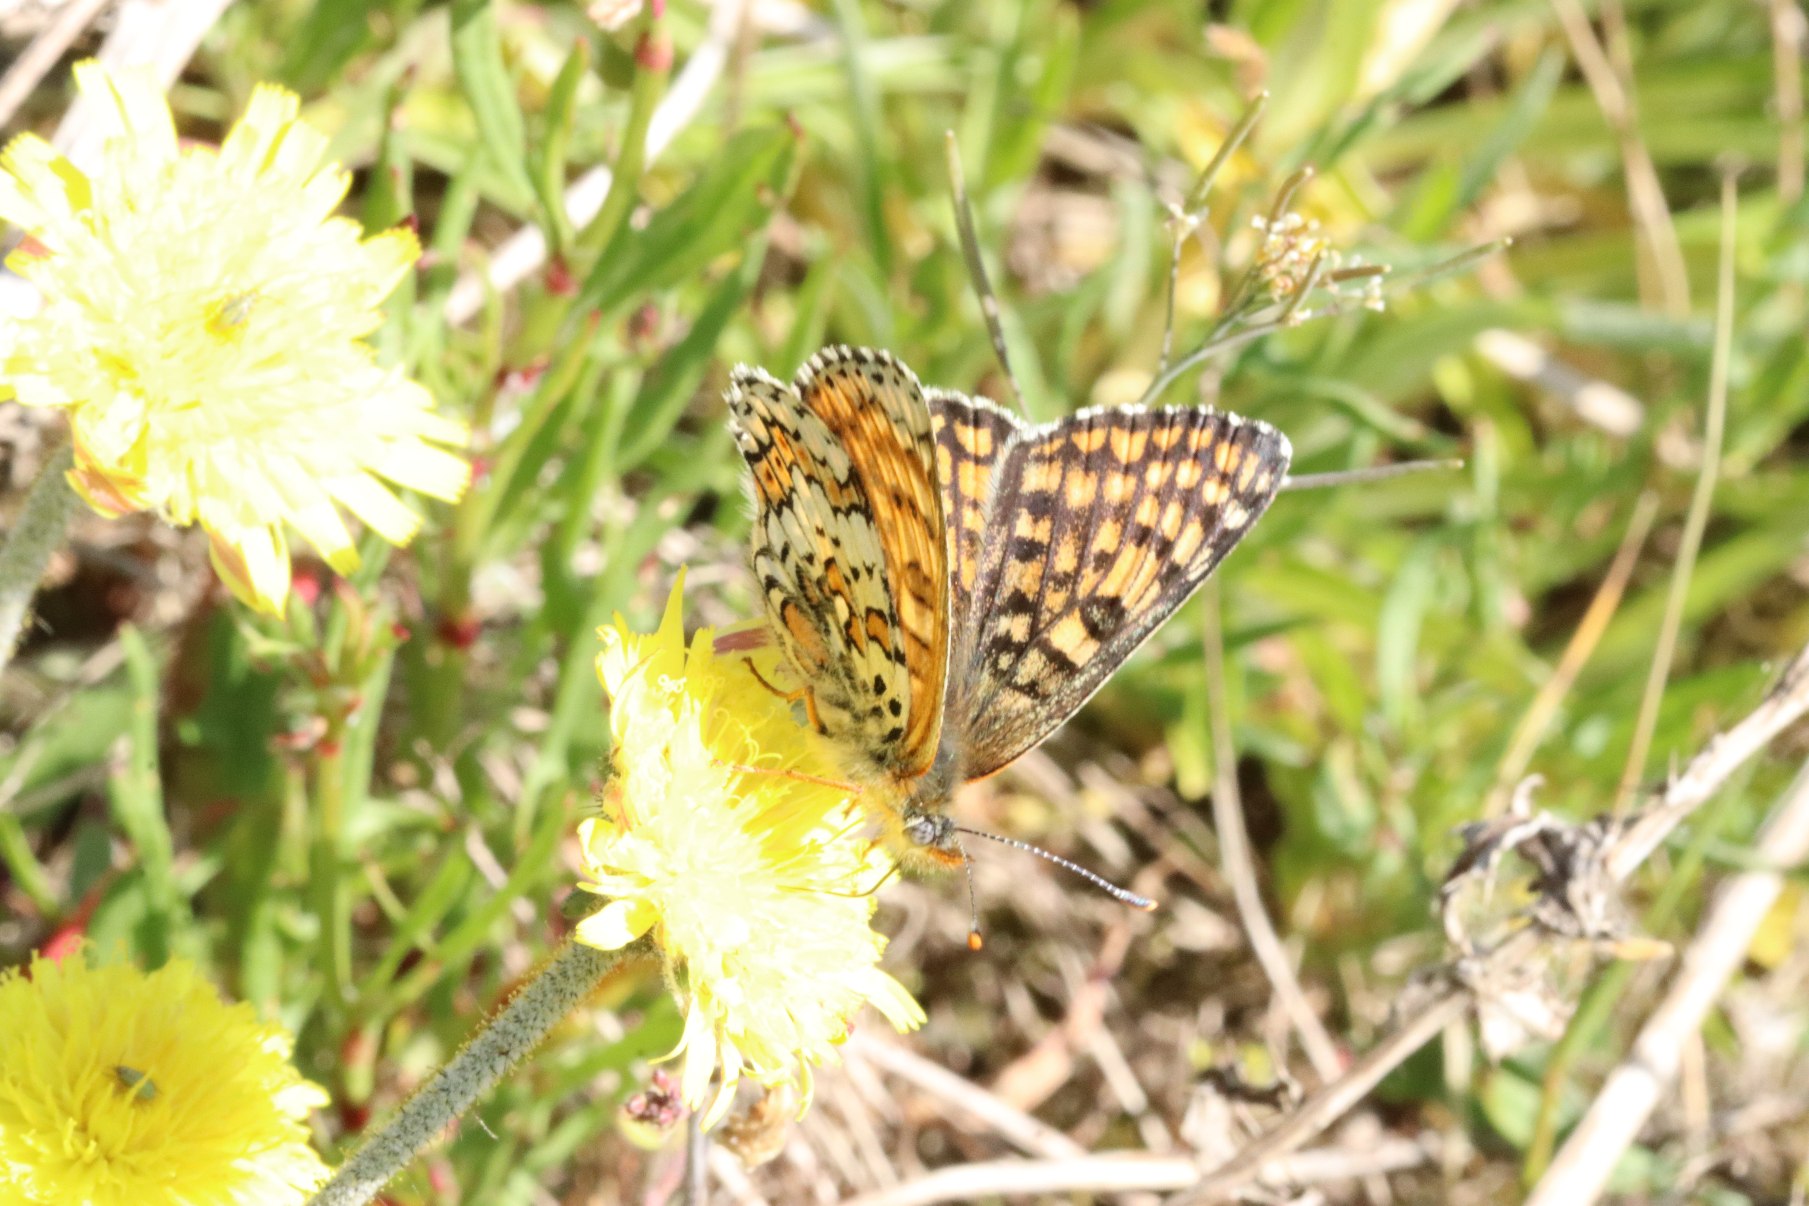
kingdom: Animalia
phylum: Arthropoda
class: Insecta
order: Lepidoptera
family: Nymphalidae
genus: Melitaea
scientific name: Melitaea cinxia
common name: Okkergul pletvinge
